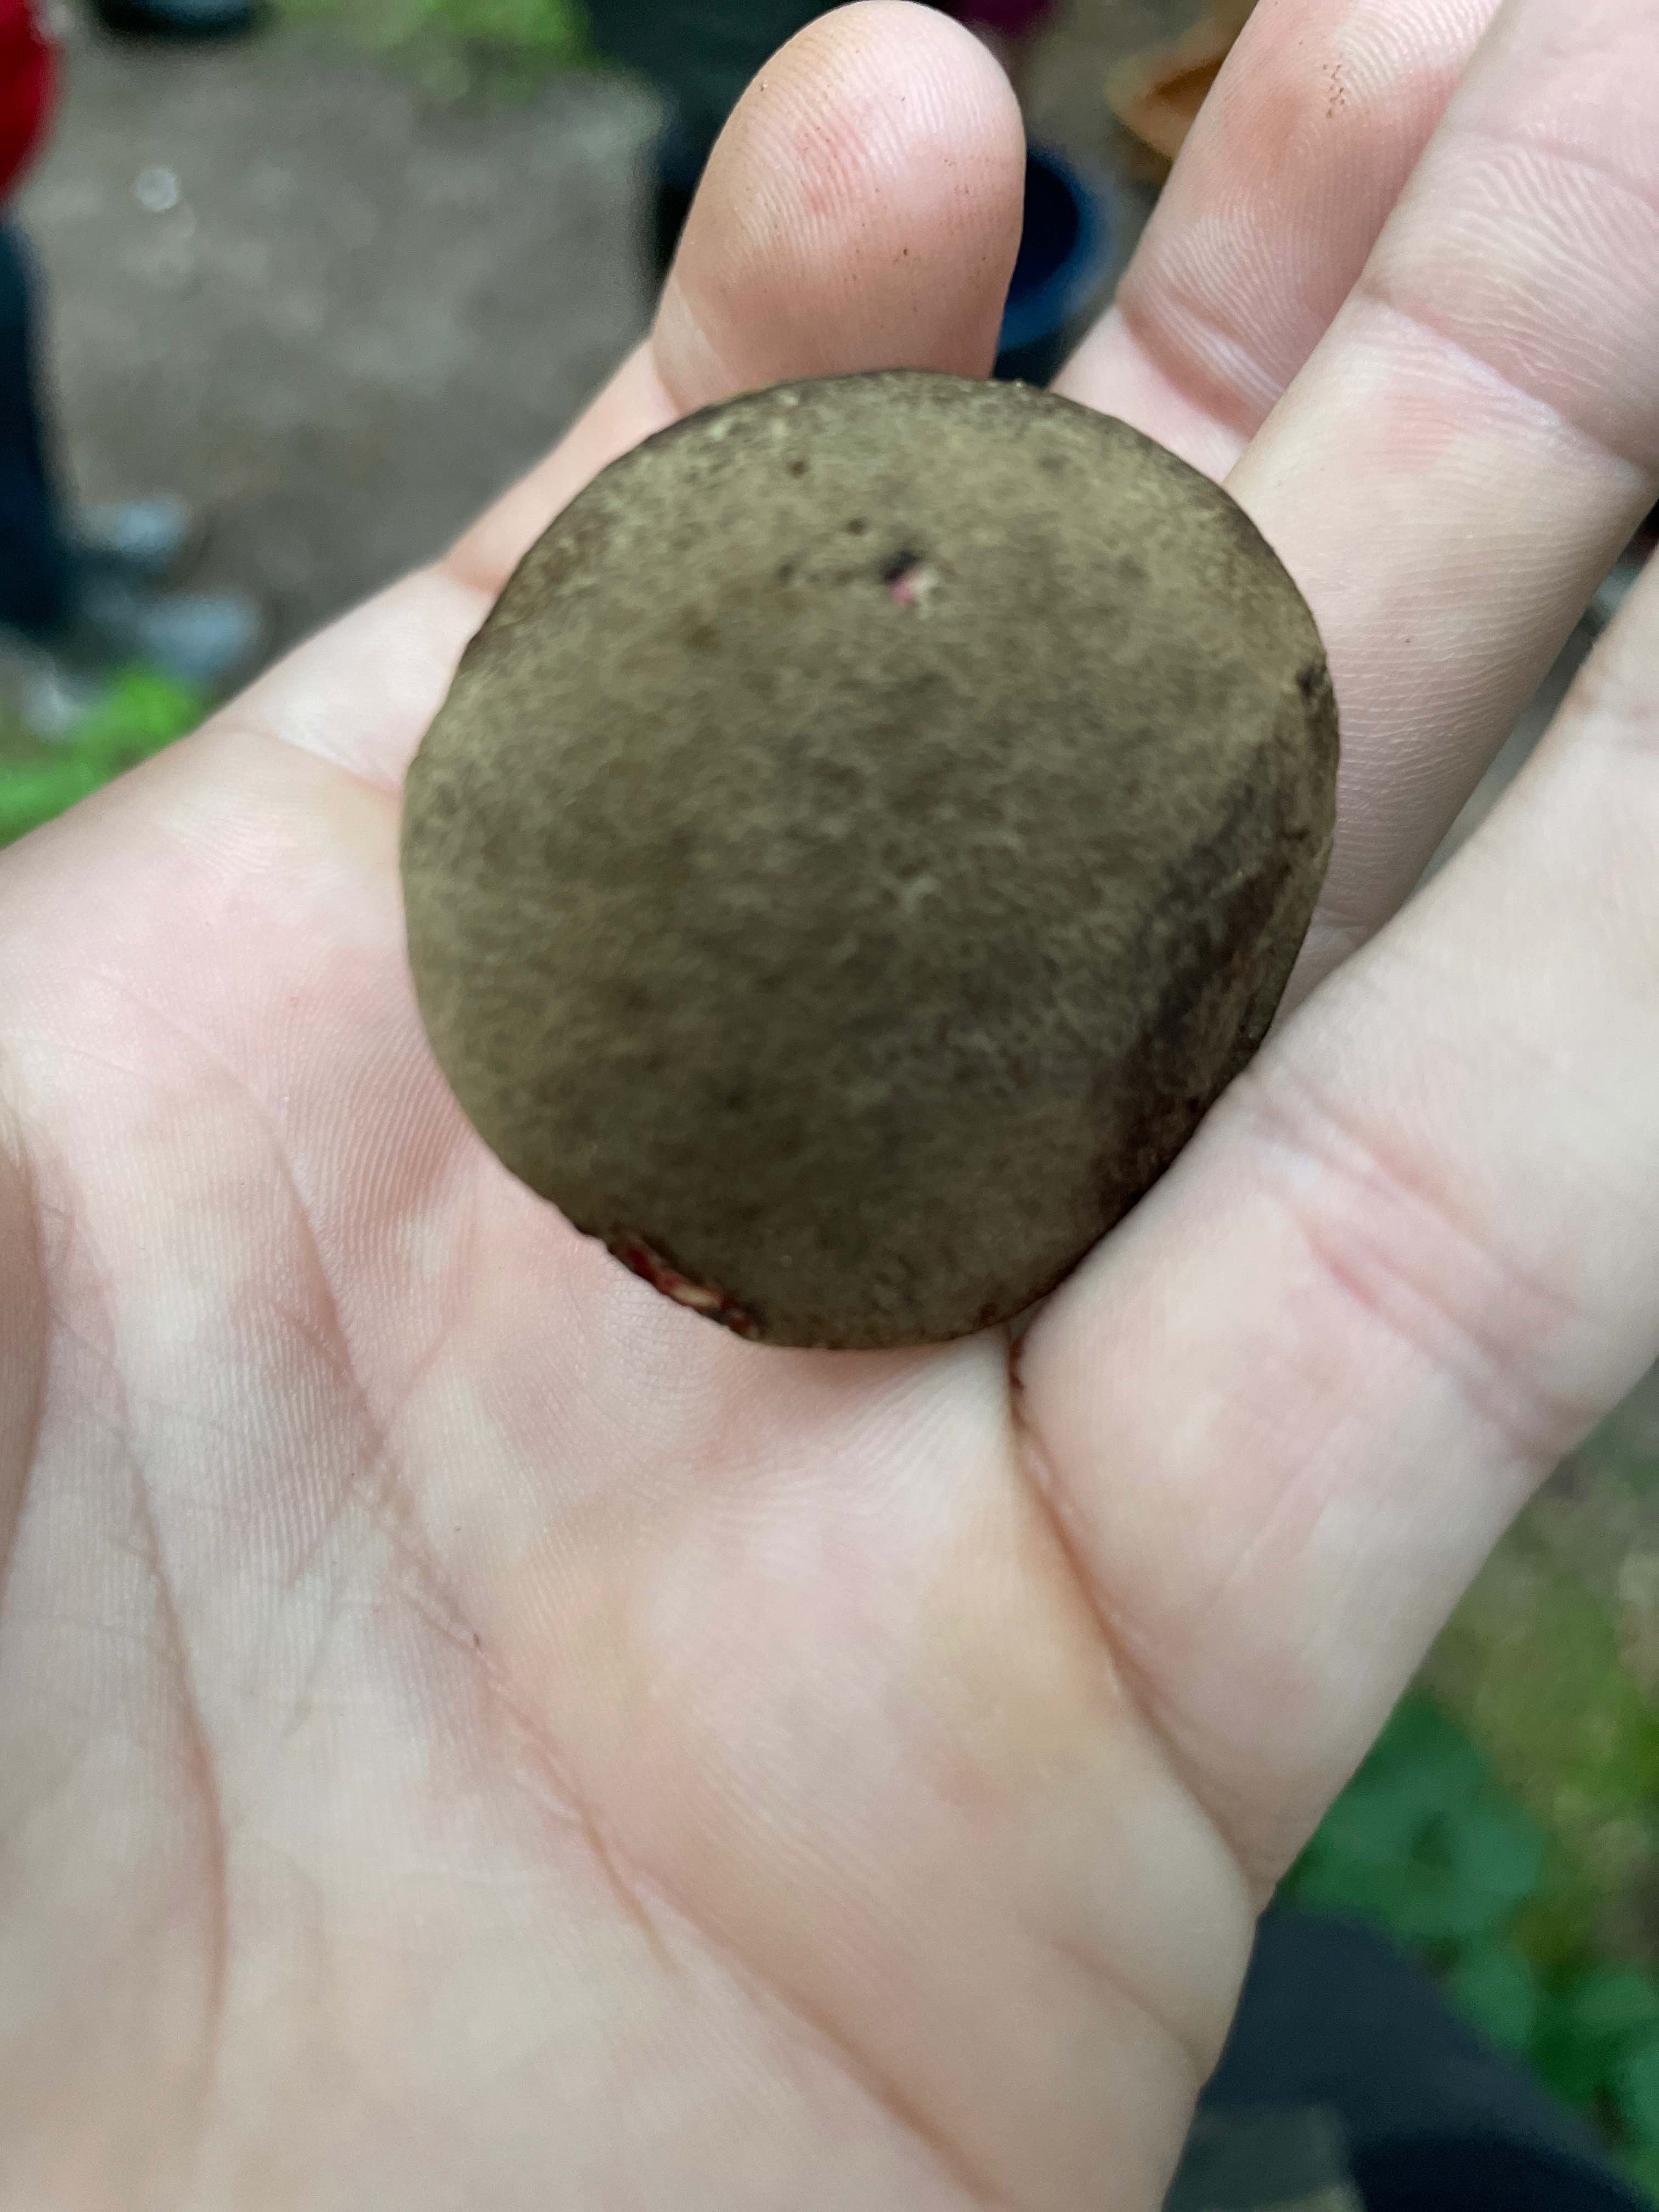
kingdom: Fungi
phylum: Basidiomycota
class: Agaricomycetes
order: Boletales
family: Boletaceae
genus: Xerocomellus
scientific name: Xerocomellus
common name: dværgrørhat
